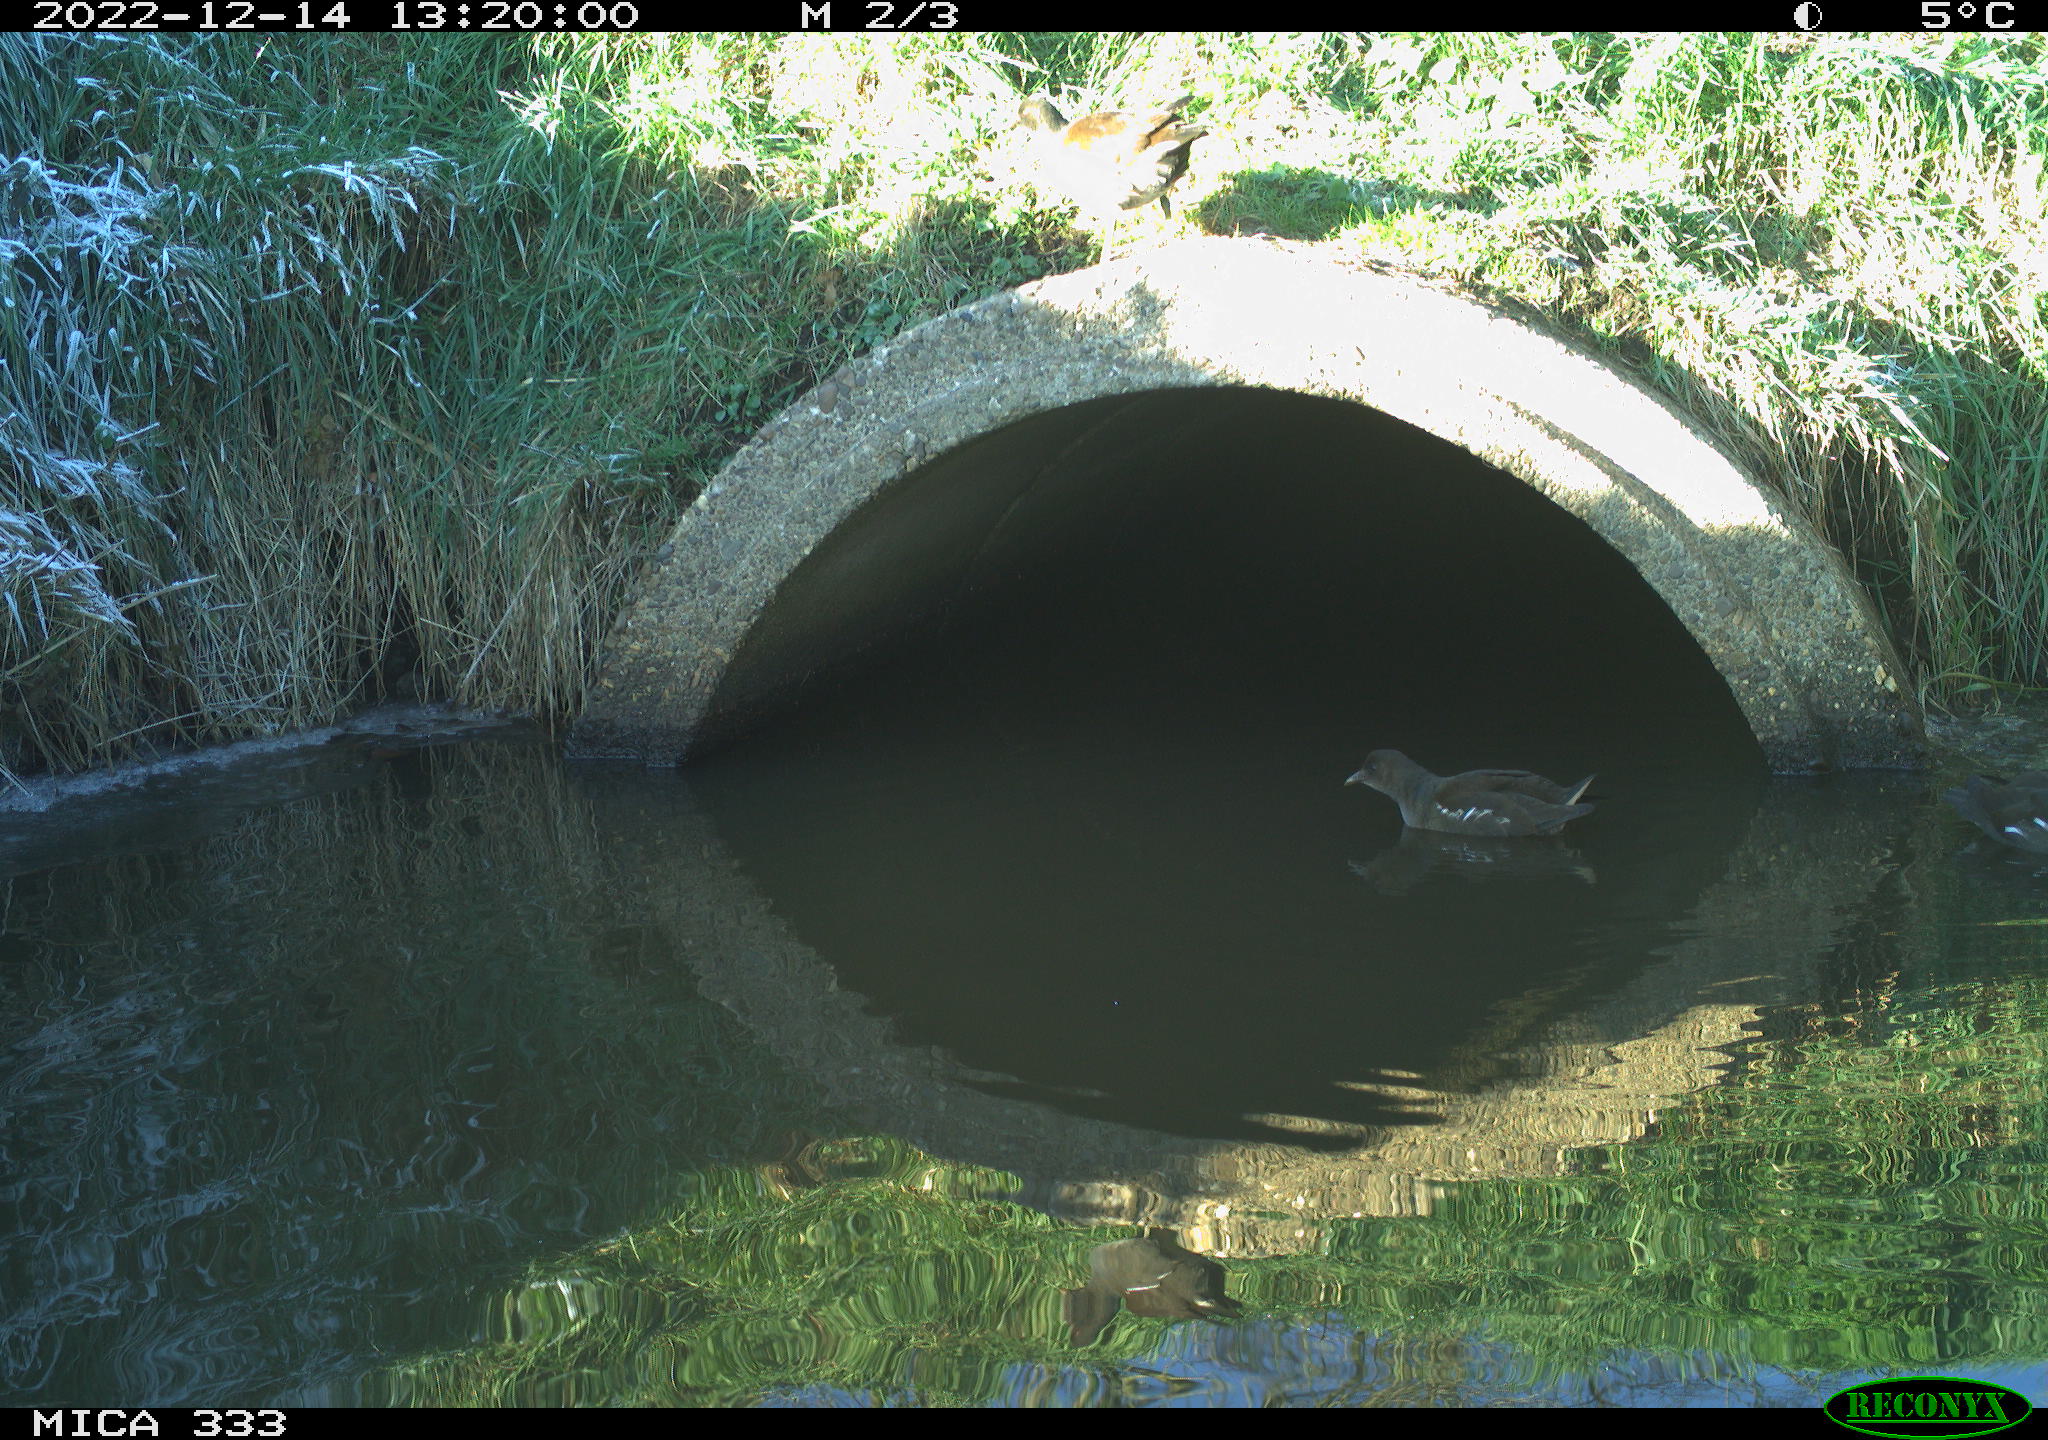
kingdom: Animalia
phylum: Chordata
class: Aves
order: Gruiformes
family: Rallidae
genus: Gallinula
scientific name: Gallinula chloropus
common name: Common moorhen
